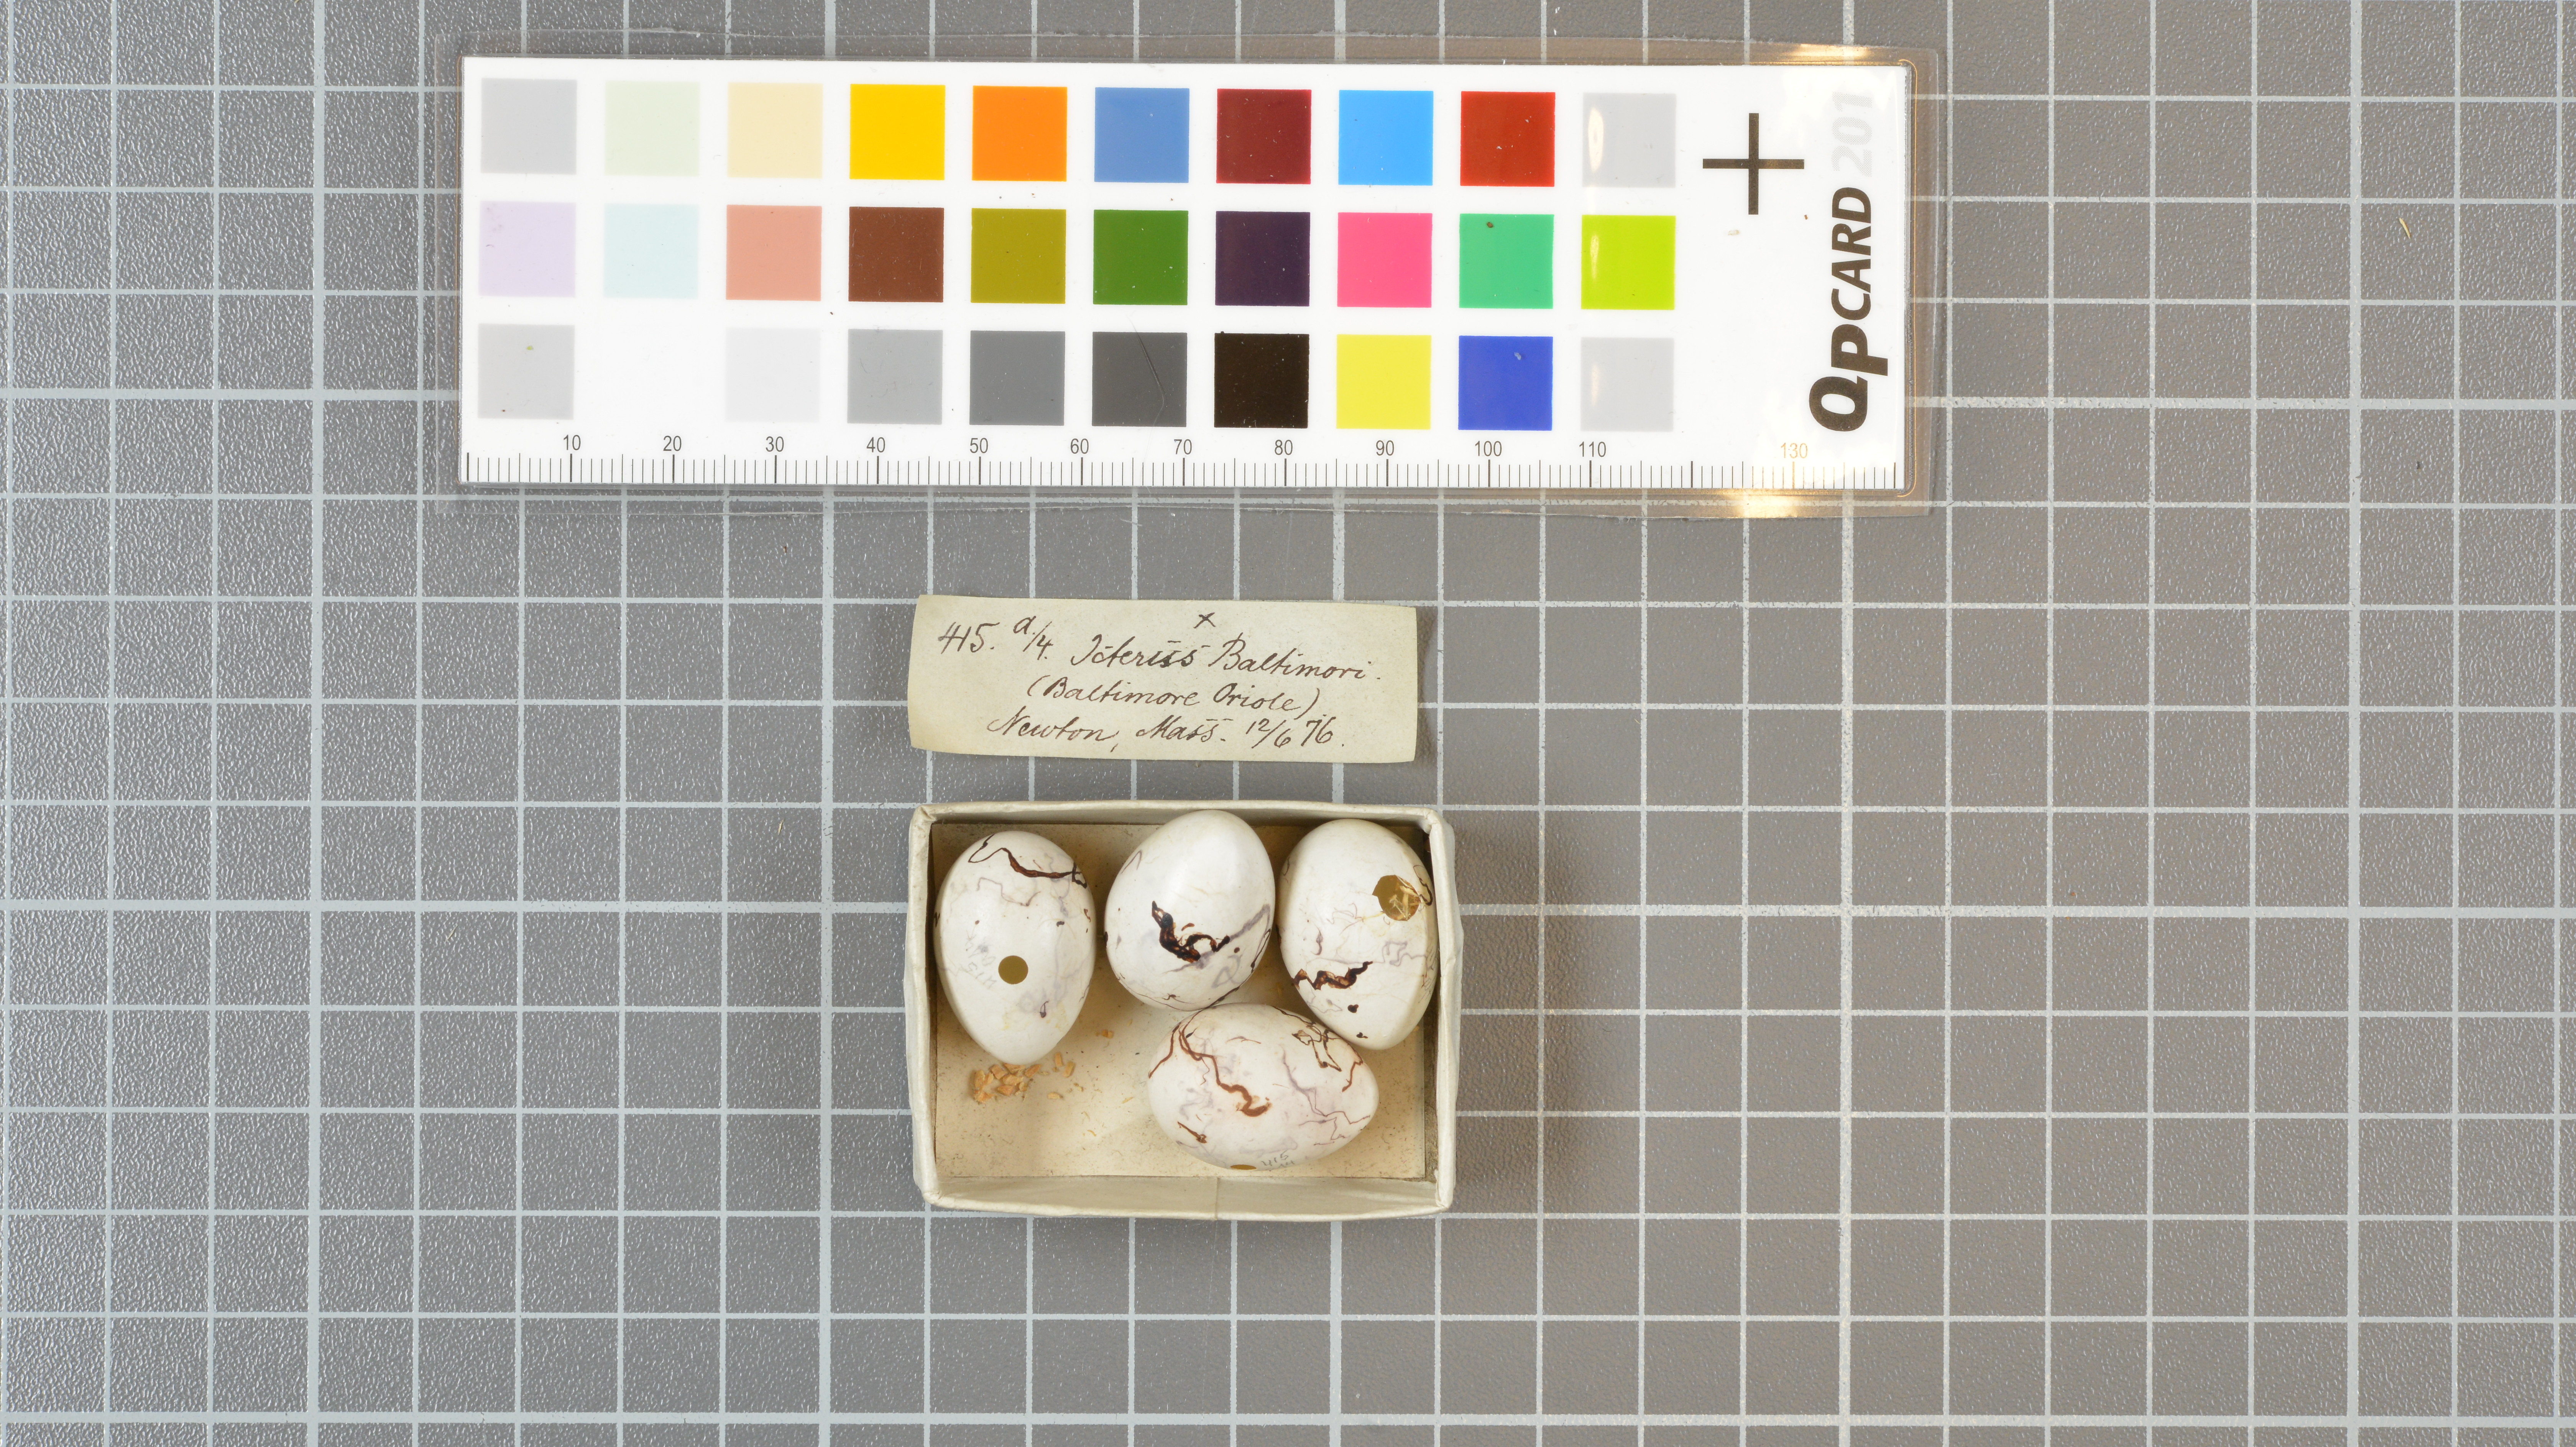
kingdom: Animalia
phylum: Chordata
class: Aves
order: Passeriformes
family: Icteridae
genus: Icterus
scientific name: Icterus galbula
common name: Baltimore oriole
